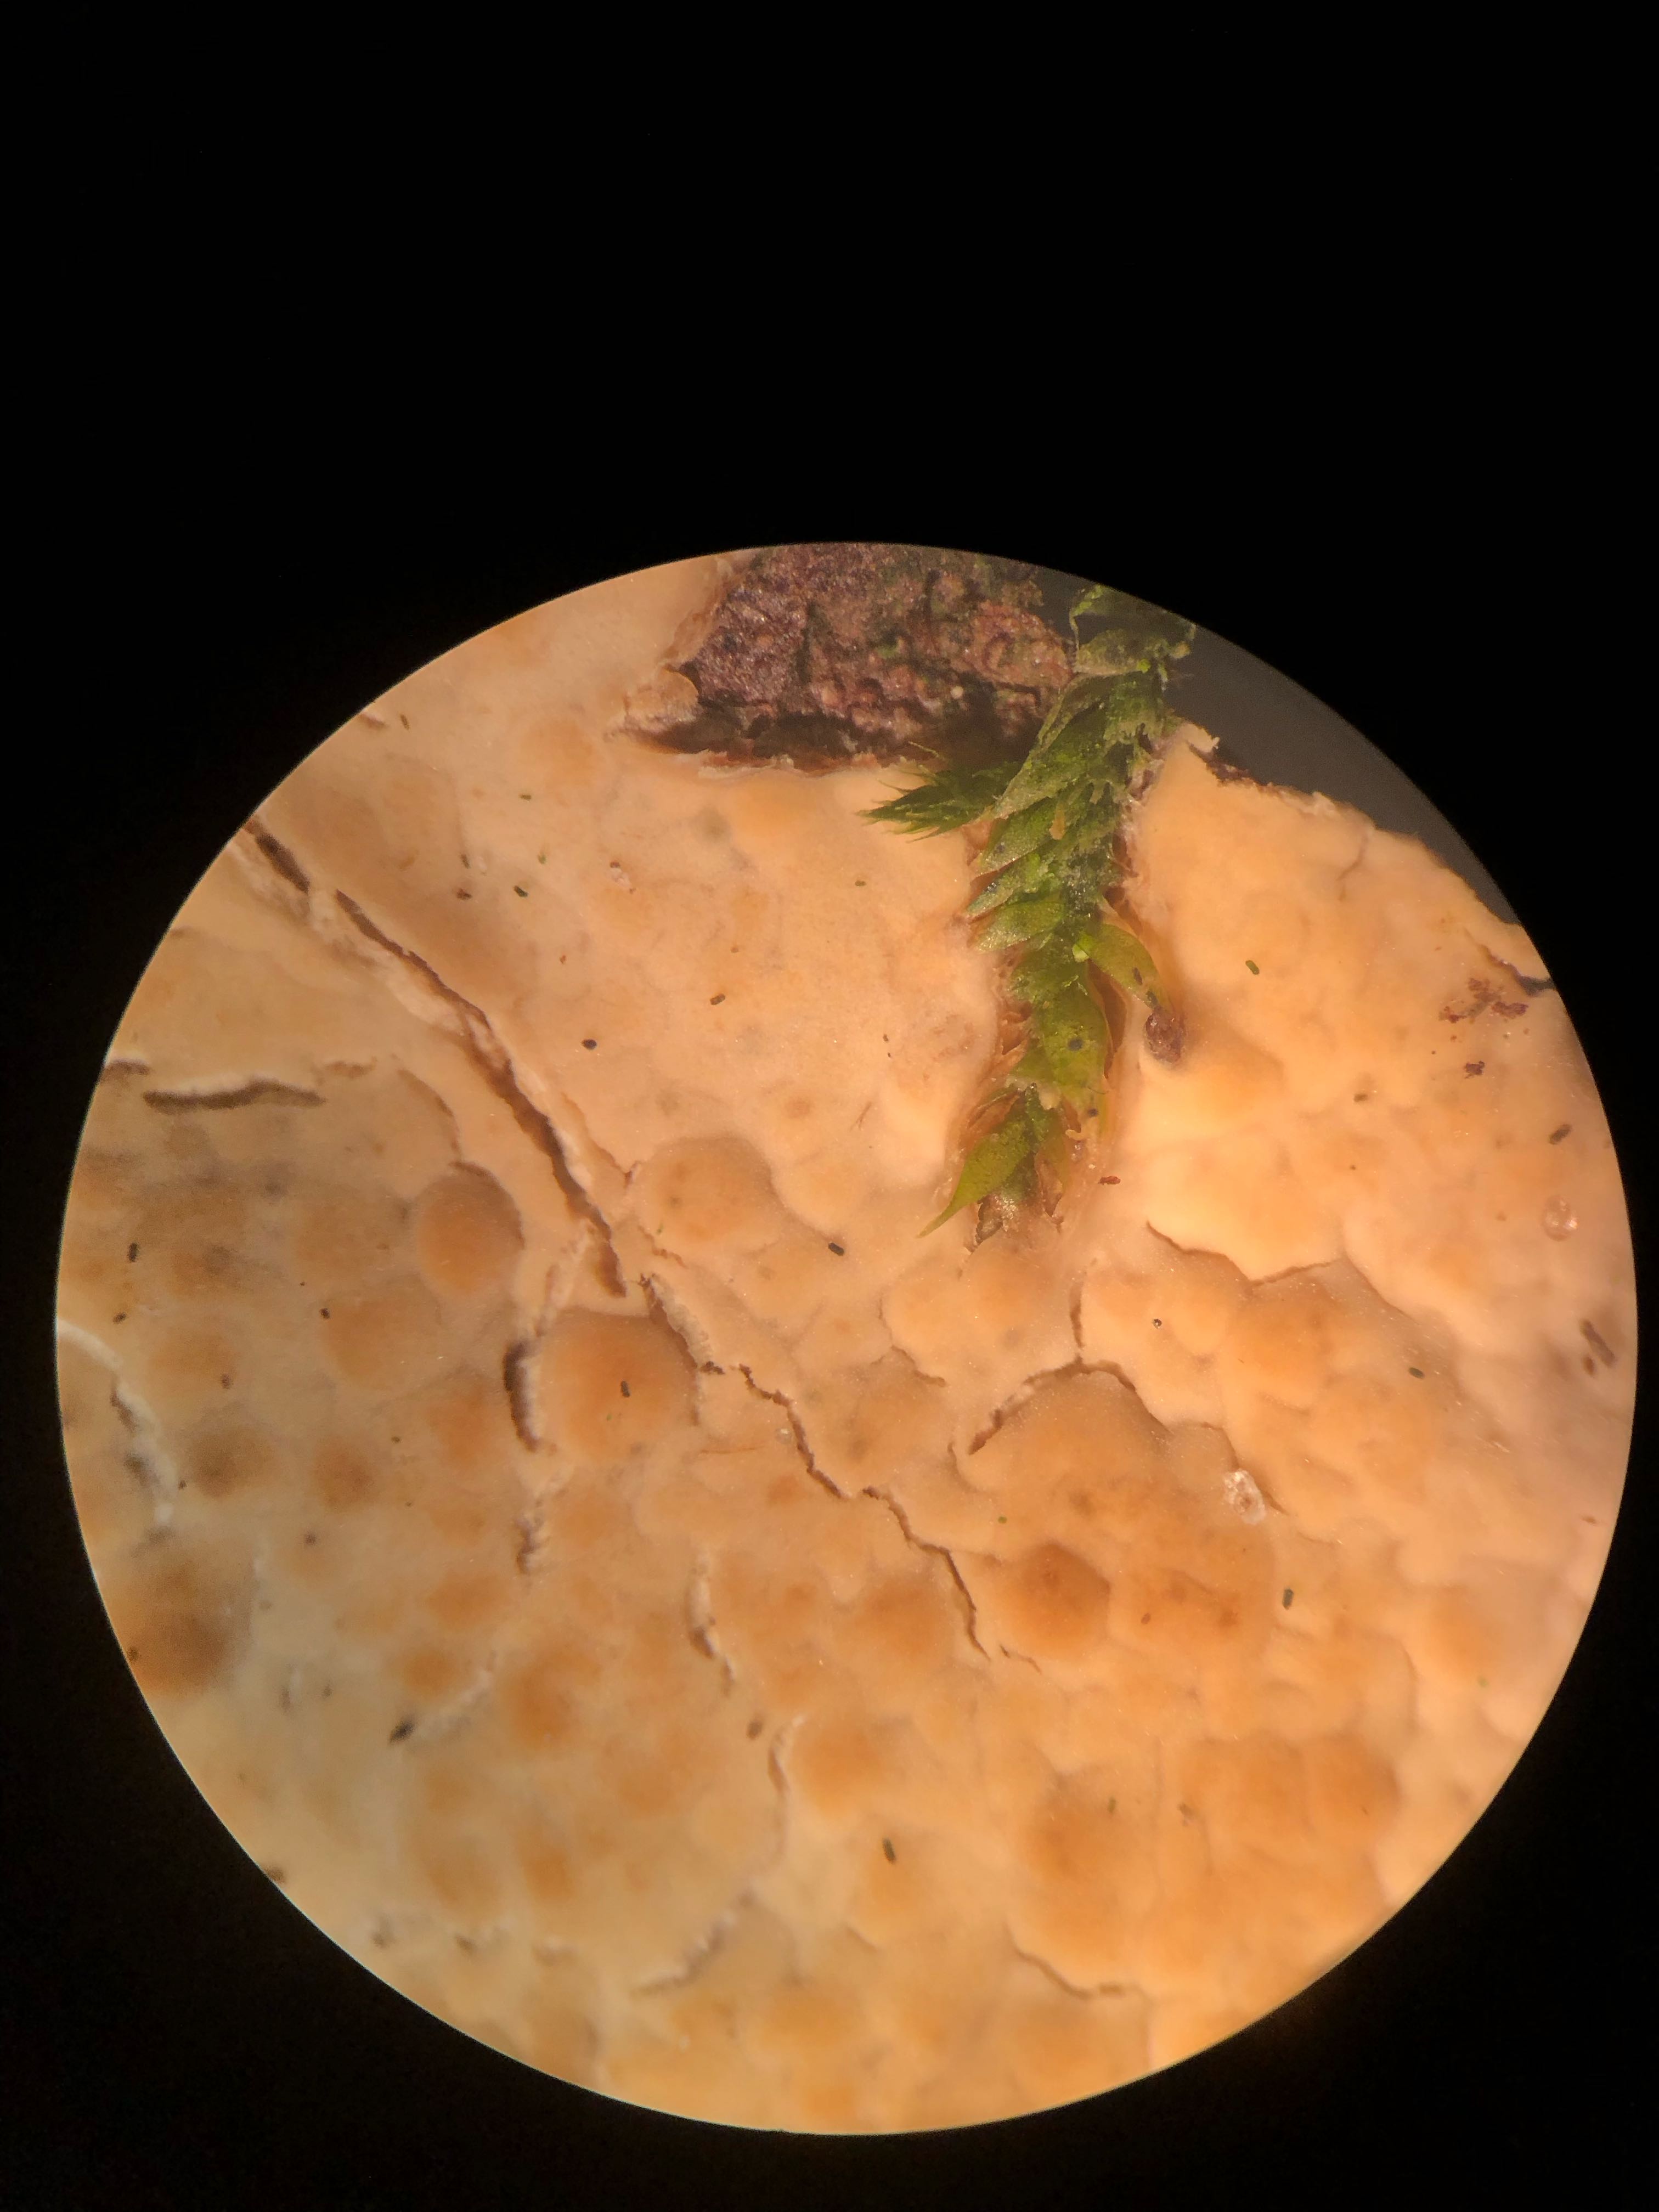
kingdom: Fungi
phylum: Basidiomycota
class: Agaricomycetes
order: Corticiales
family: Corticiaceae
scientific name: Corticiaceae
